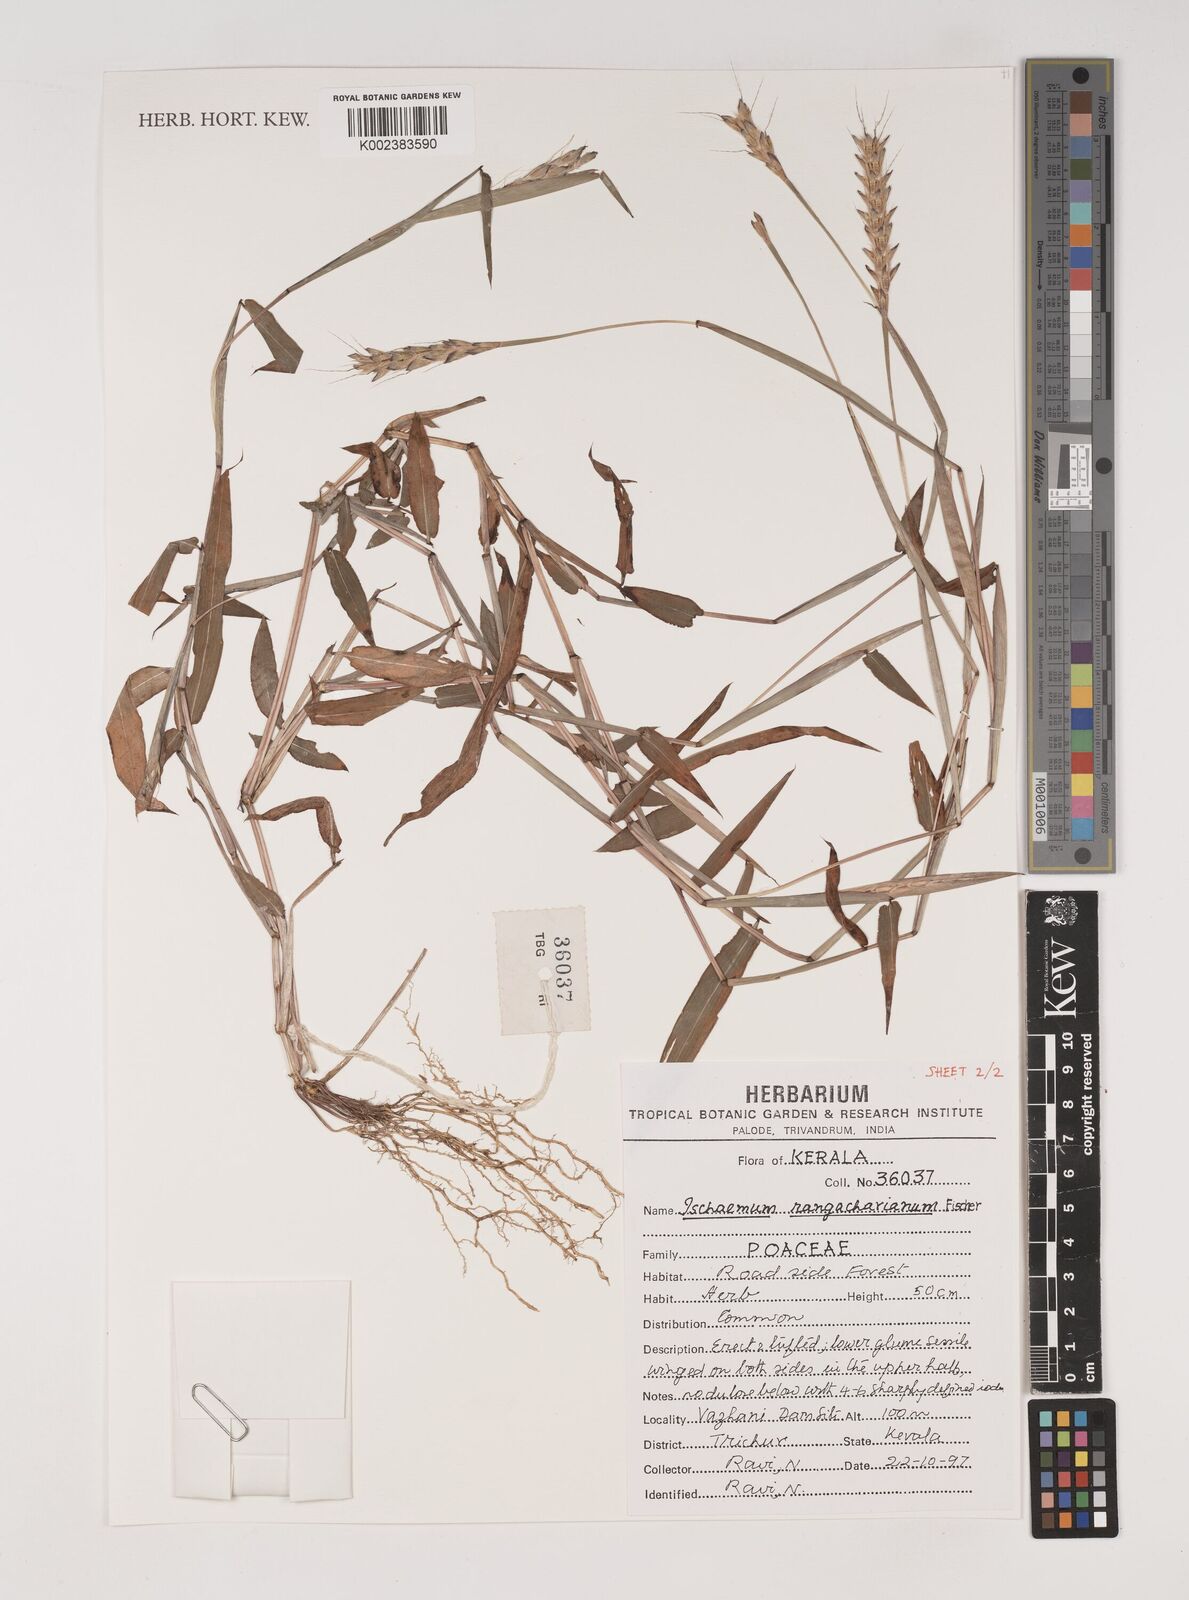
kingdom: Plantae
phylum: Tracheophyta
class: Liliopsida
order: Poales
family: Poaceae
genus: Ischaemum
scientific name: Ischaemum rangacharianum
